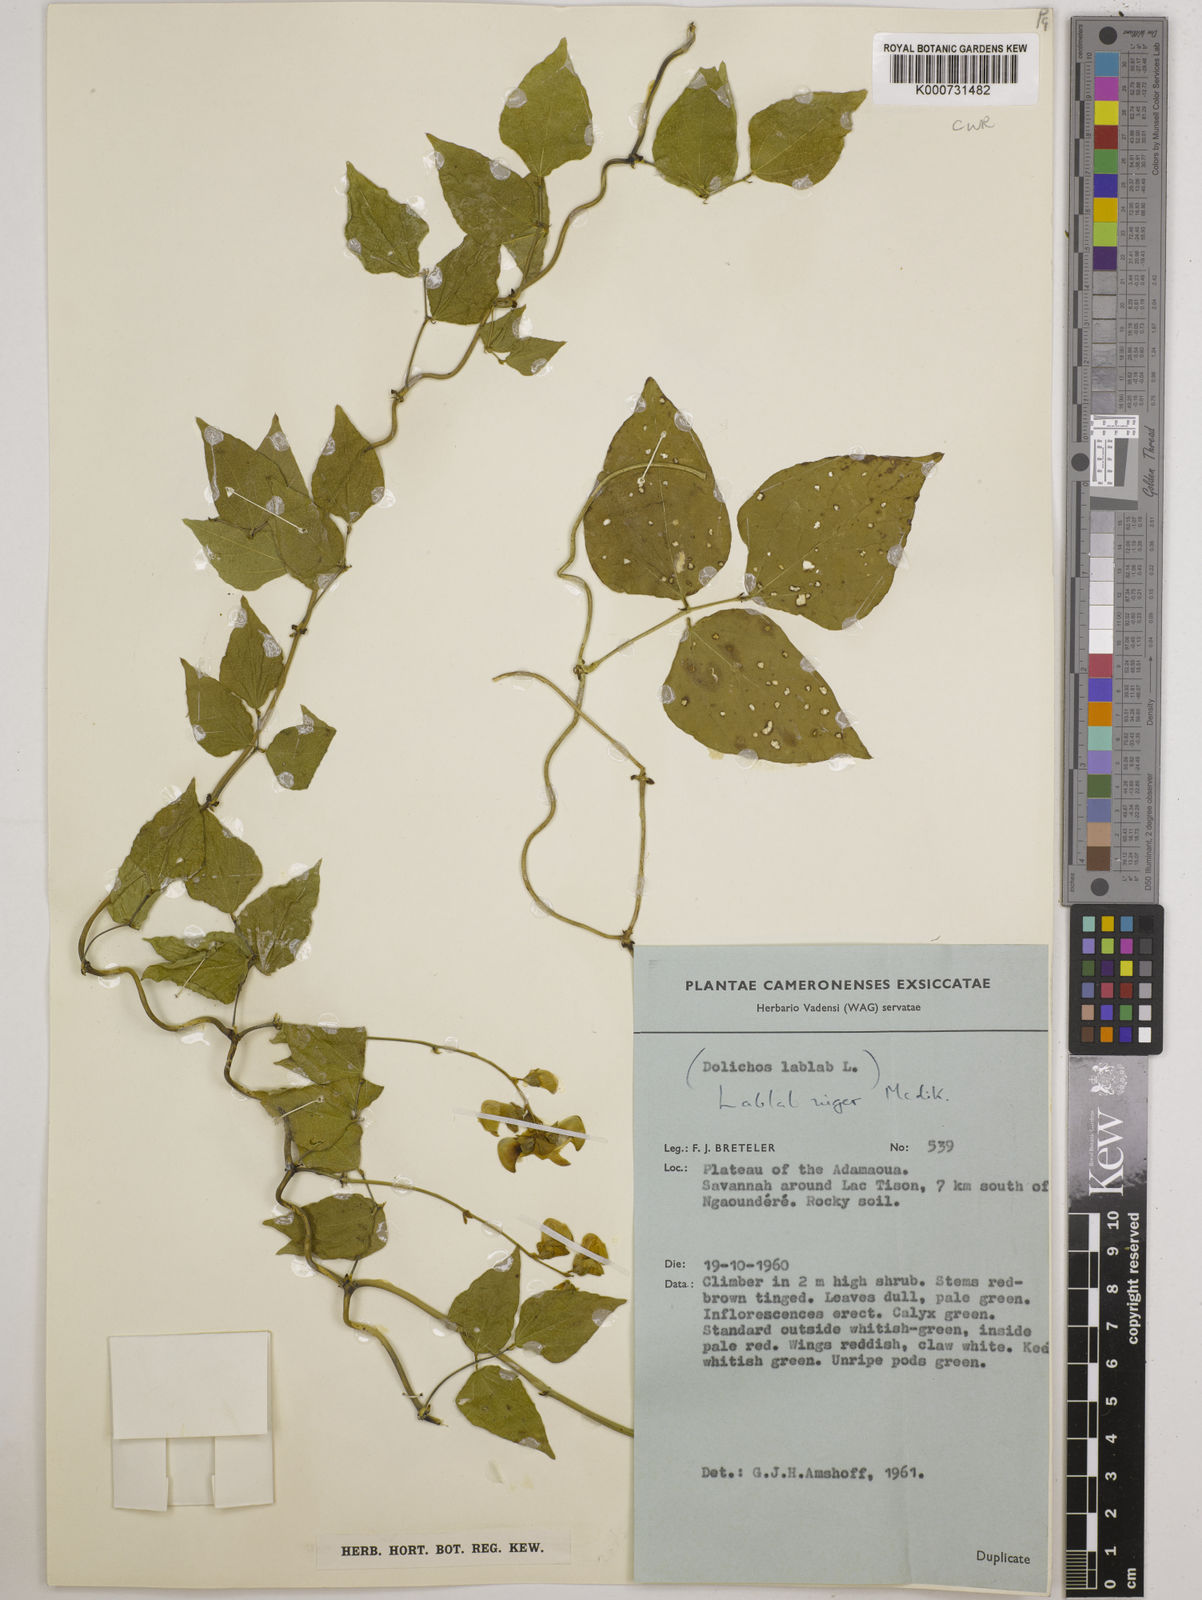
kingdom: Plantae
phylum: Tracheophyta
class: Magnoliopsida
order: Fabales
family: Fabaceae
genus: Lablab
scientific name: Lablab purpureus
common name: Lablab-bean
